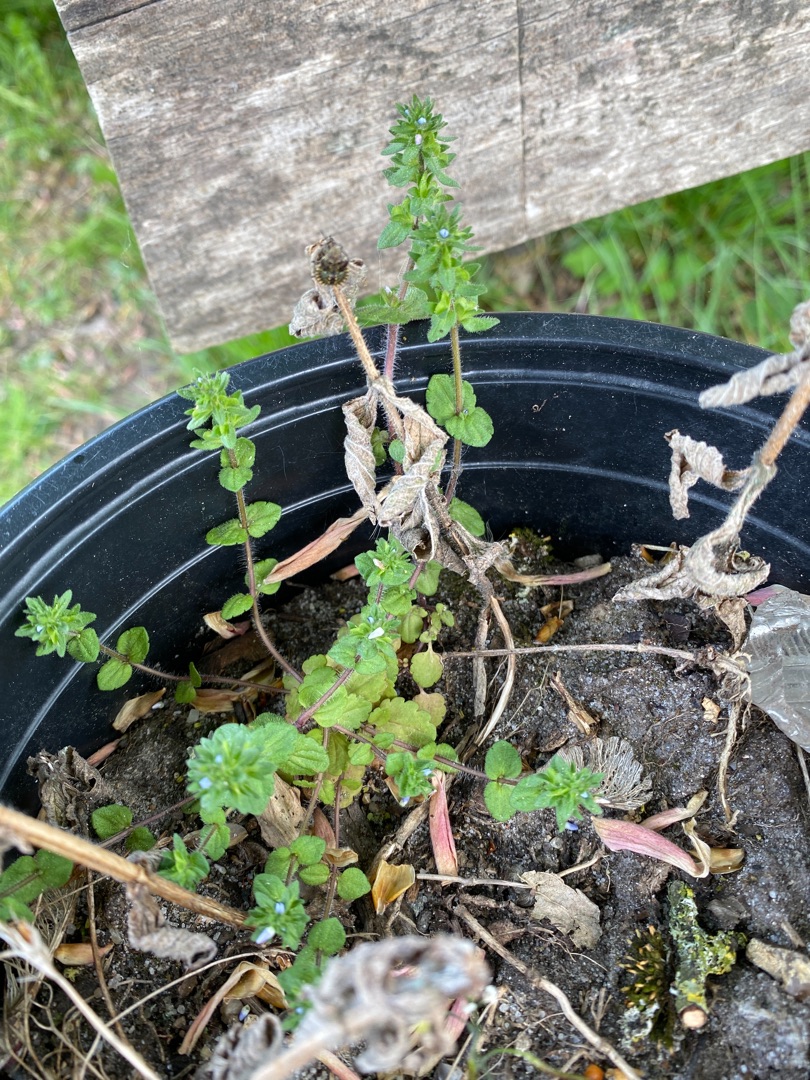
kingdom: Plantae
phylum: Tracheophyta
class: Magnoliopsida
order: Lamiales
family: Plantaginaceae
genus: Veronica
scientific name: Veronica arvensis
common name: Mark-ærenpris
